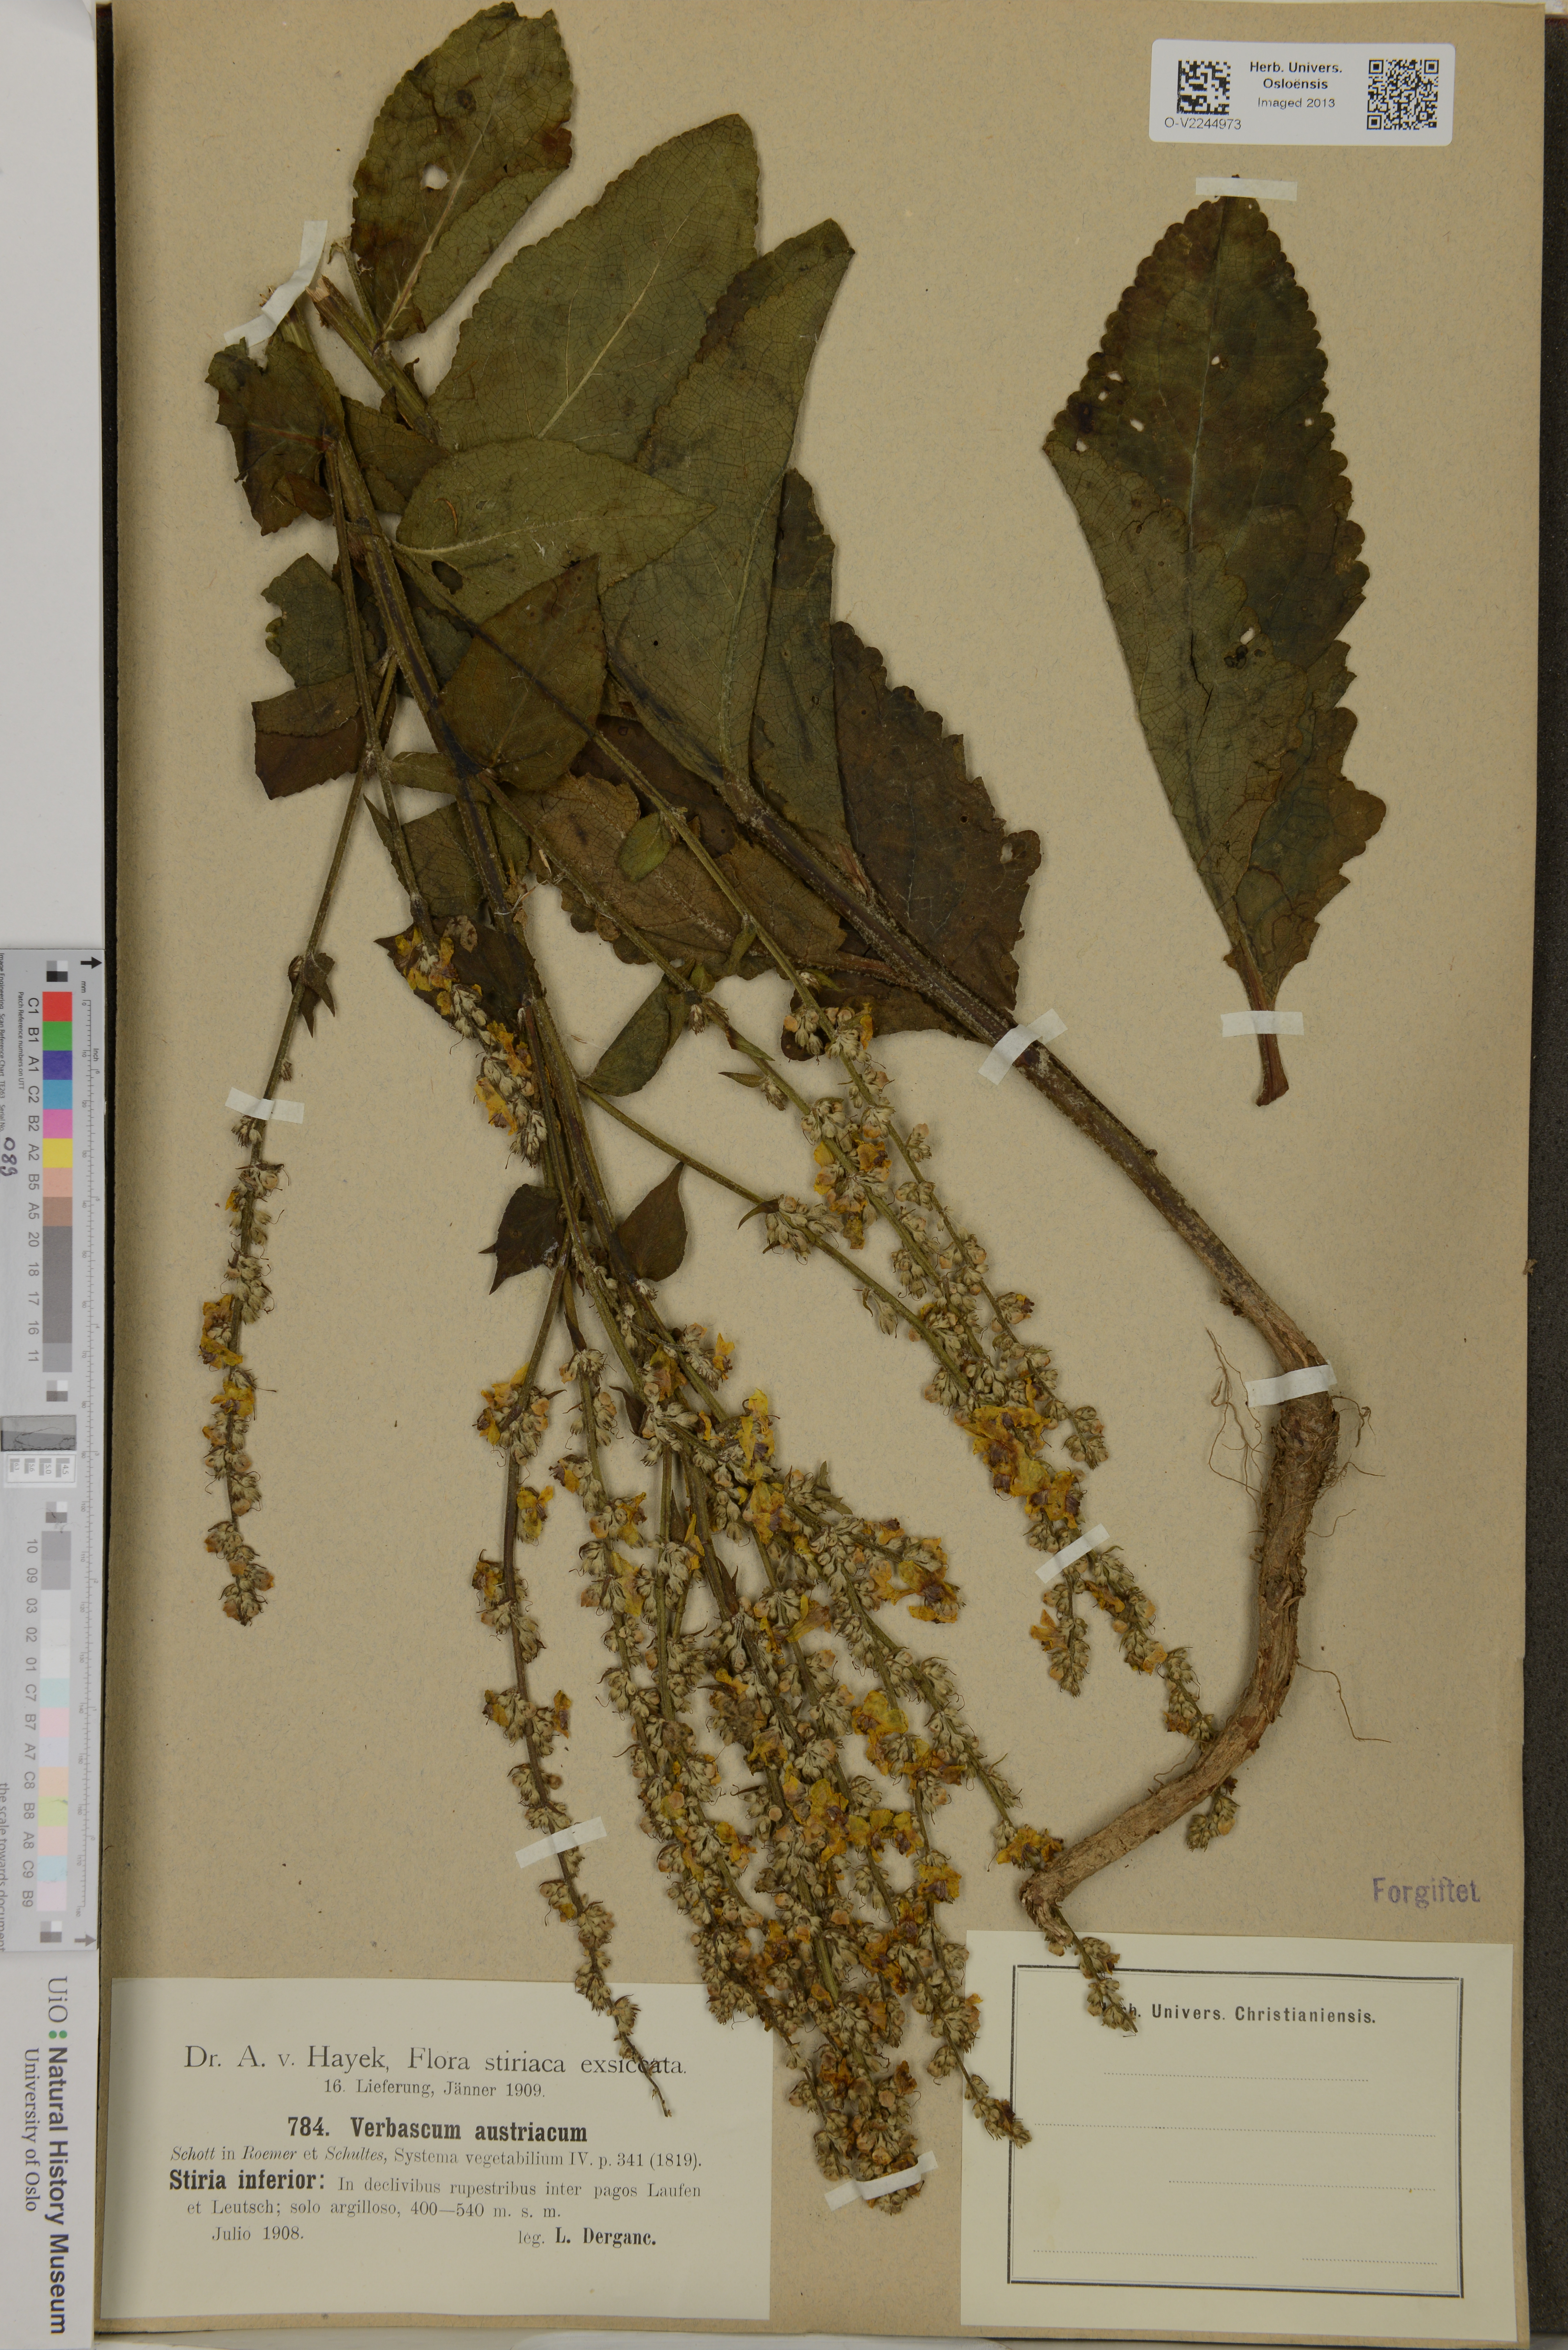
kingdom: Plantae
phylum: Tracheophyta
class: Magnoliopsida
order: Lamiales
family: Scrophulariaceae
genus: Verbascum
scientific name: Verbascum chaixii
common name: Nettle-leaved mullein
